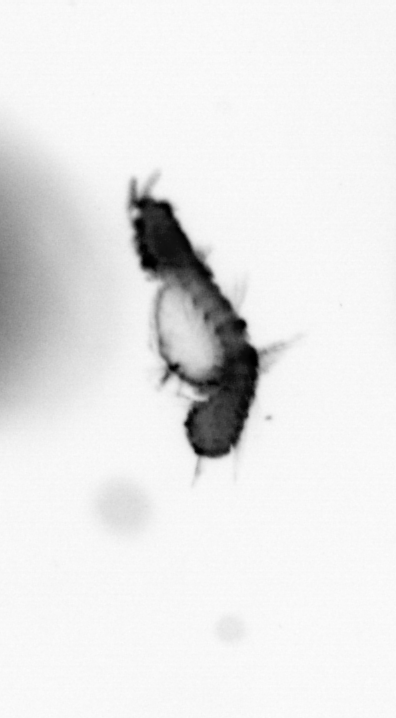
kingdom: Animalia
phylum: Annelida
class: Polychaeta
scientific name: Polychaeta
